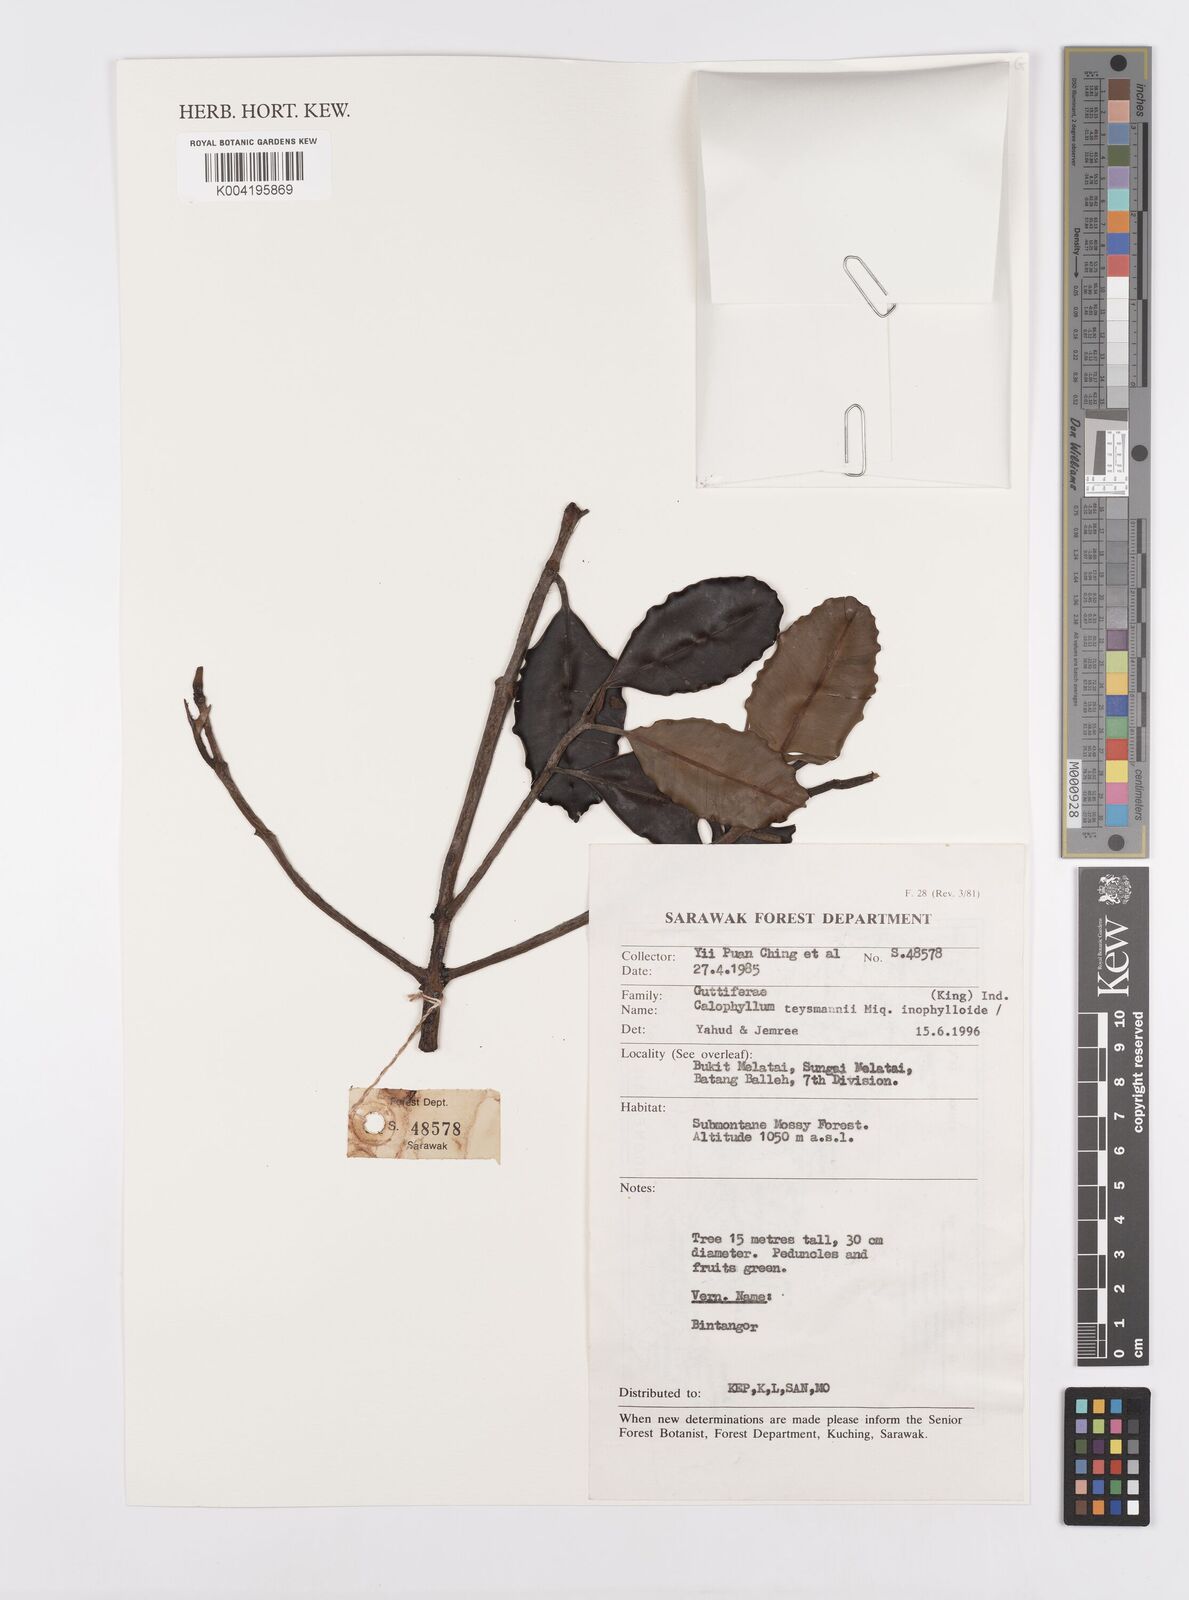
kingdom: Plantae
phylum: Tracheophyta
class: Magnoliopsida
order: Malpighiales
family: Calophyllaceae
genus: Calophyllum
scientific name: Calophyllum teysmannii
